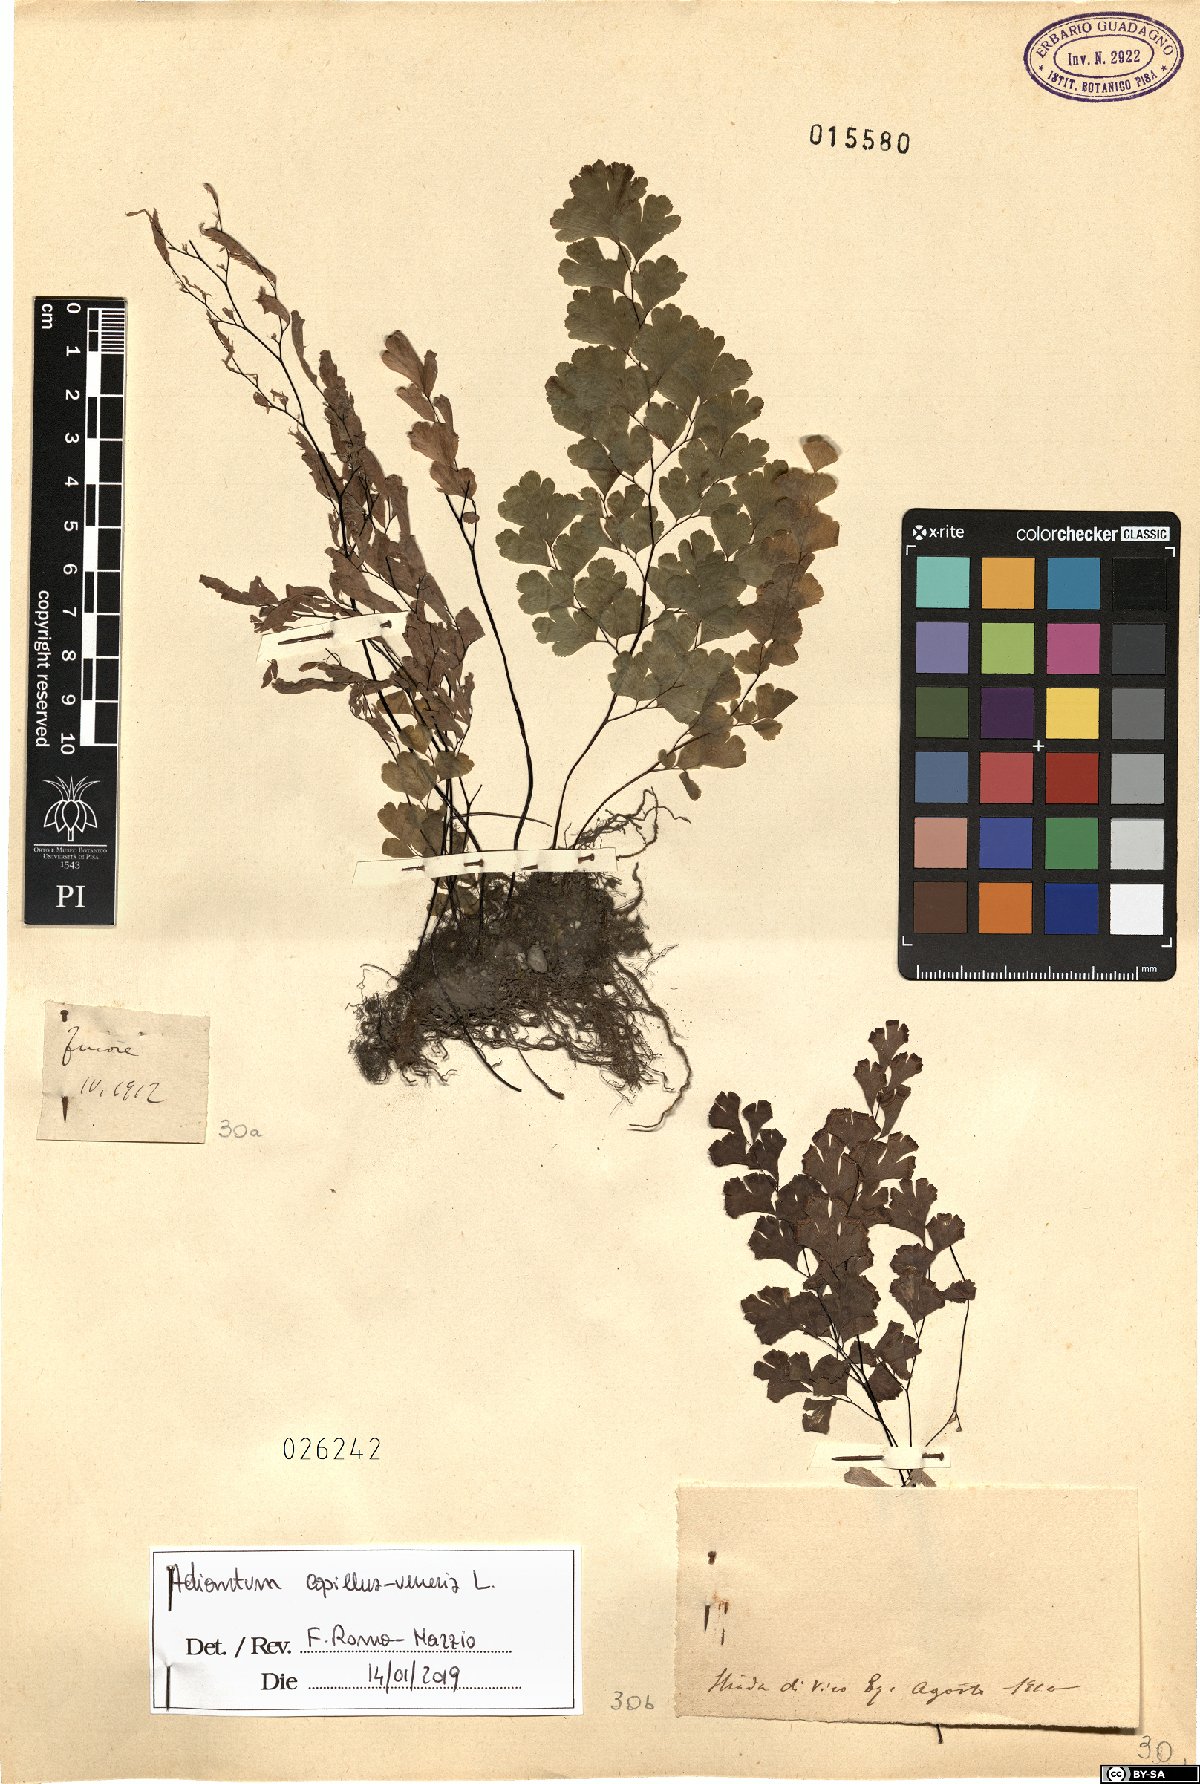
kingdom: Plantae
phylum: Tracheophyta
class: Polypodiopsida
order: Polypodiales
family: Pteridaceae
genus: Adiantum
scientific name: Adiantum capillus-veneris
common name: Maidenhair fern
